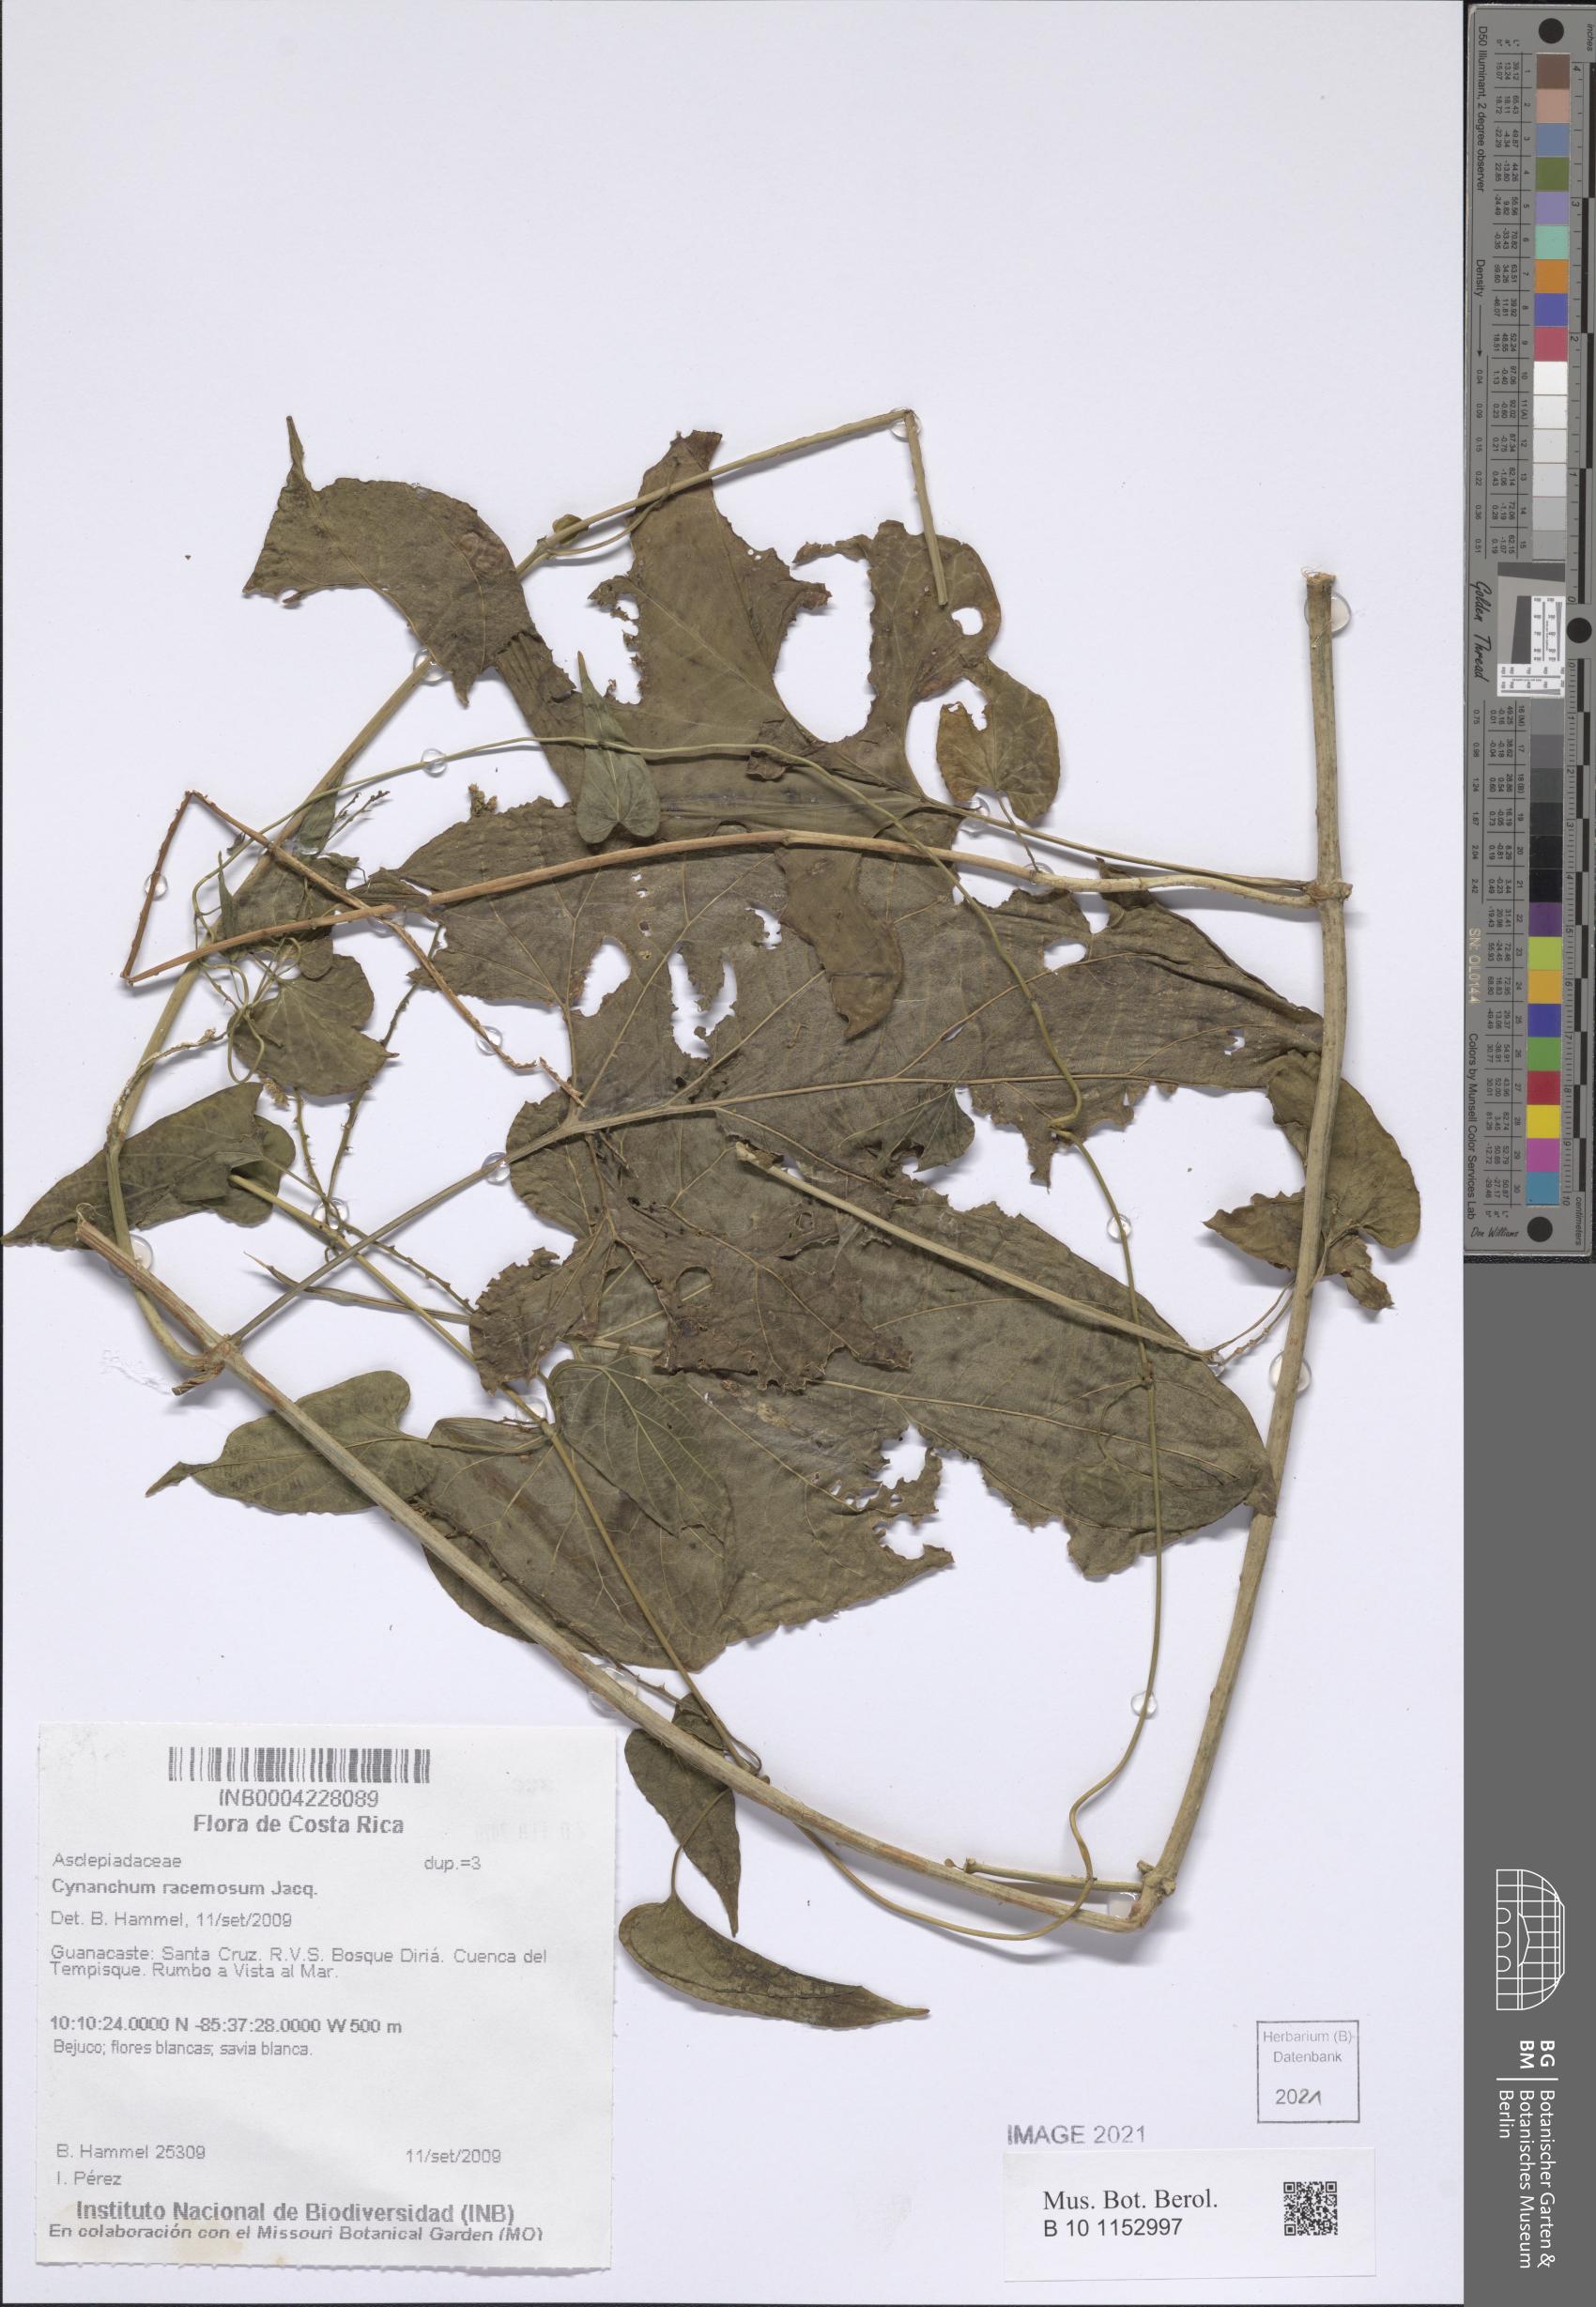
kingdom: Plantae
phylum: Tracheophyta
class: Magnoliopsida
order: Gentianales
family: Apocynaceae
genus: Cynanchum
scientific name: Cynanchum rensonii
